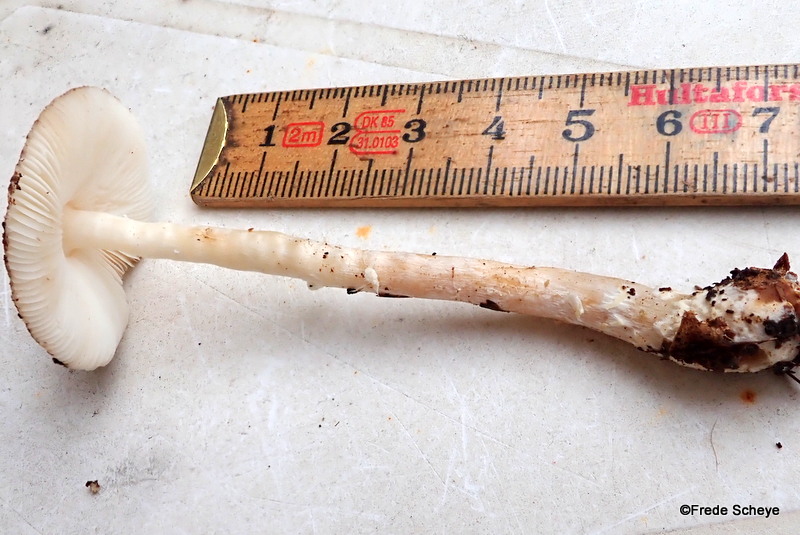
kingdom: Fungi
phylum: Basidiomycota
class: Agaricomycetes
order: Agaricales
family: Agaricaceae
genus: Lepiota
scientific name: Lepiota clypeolaria
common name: flosset parasolhat
